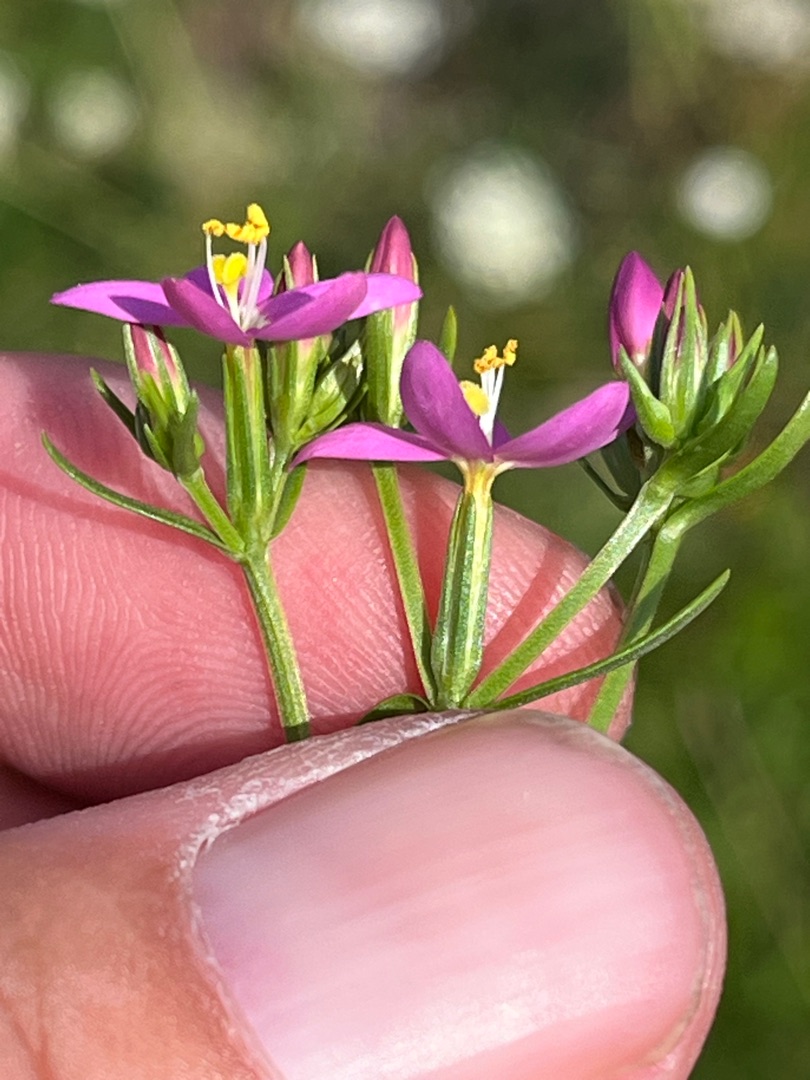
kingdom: Plantae
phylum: Tracheophyta
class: Magnoliopsida
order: Gentianales
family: Gentianaceae
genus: Centaurium
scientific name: Centaurium littorale
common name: Strand-tusindgylden
